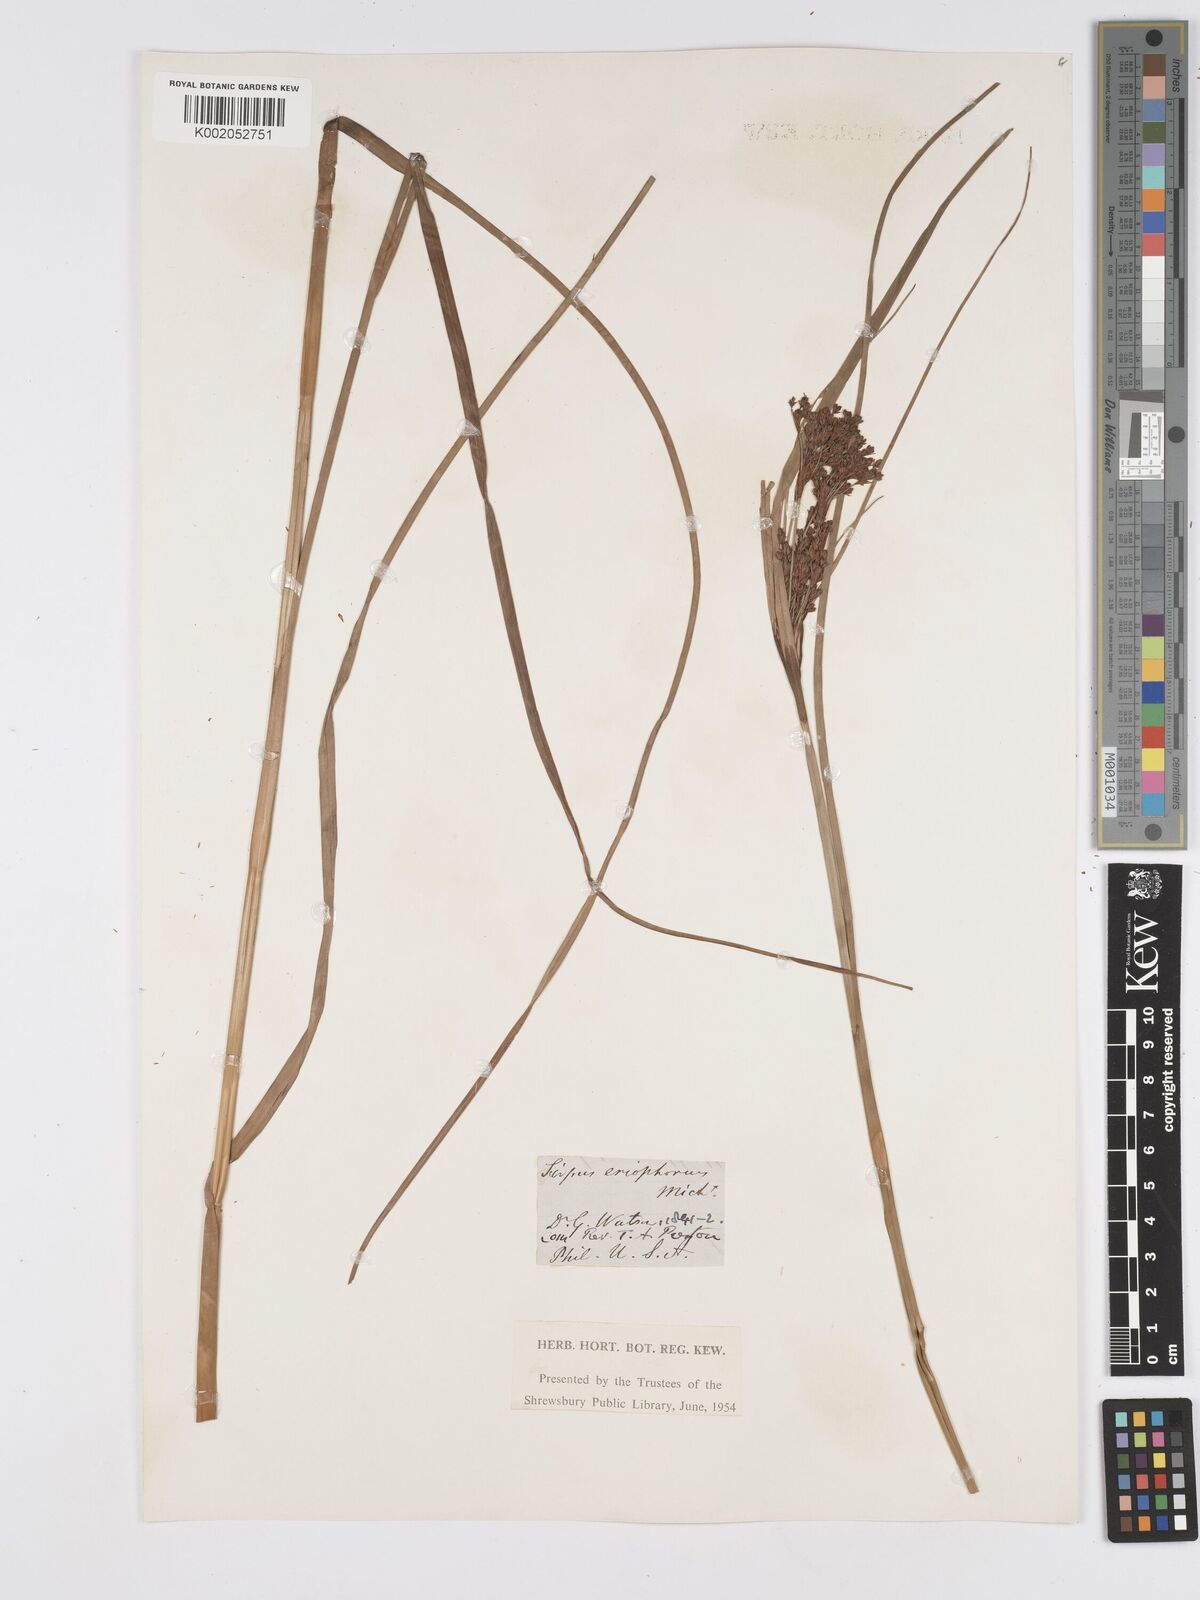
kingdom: Plantae
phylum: Tracheophyta
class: Liliopsida
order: Poales
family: Cyperaceae
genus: Scirpus
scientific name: Scirpus cyperinus
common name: Black-sheathed bulrush
